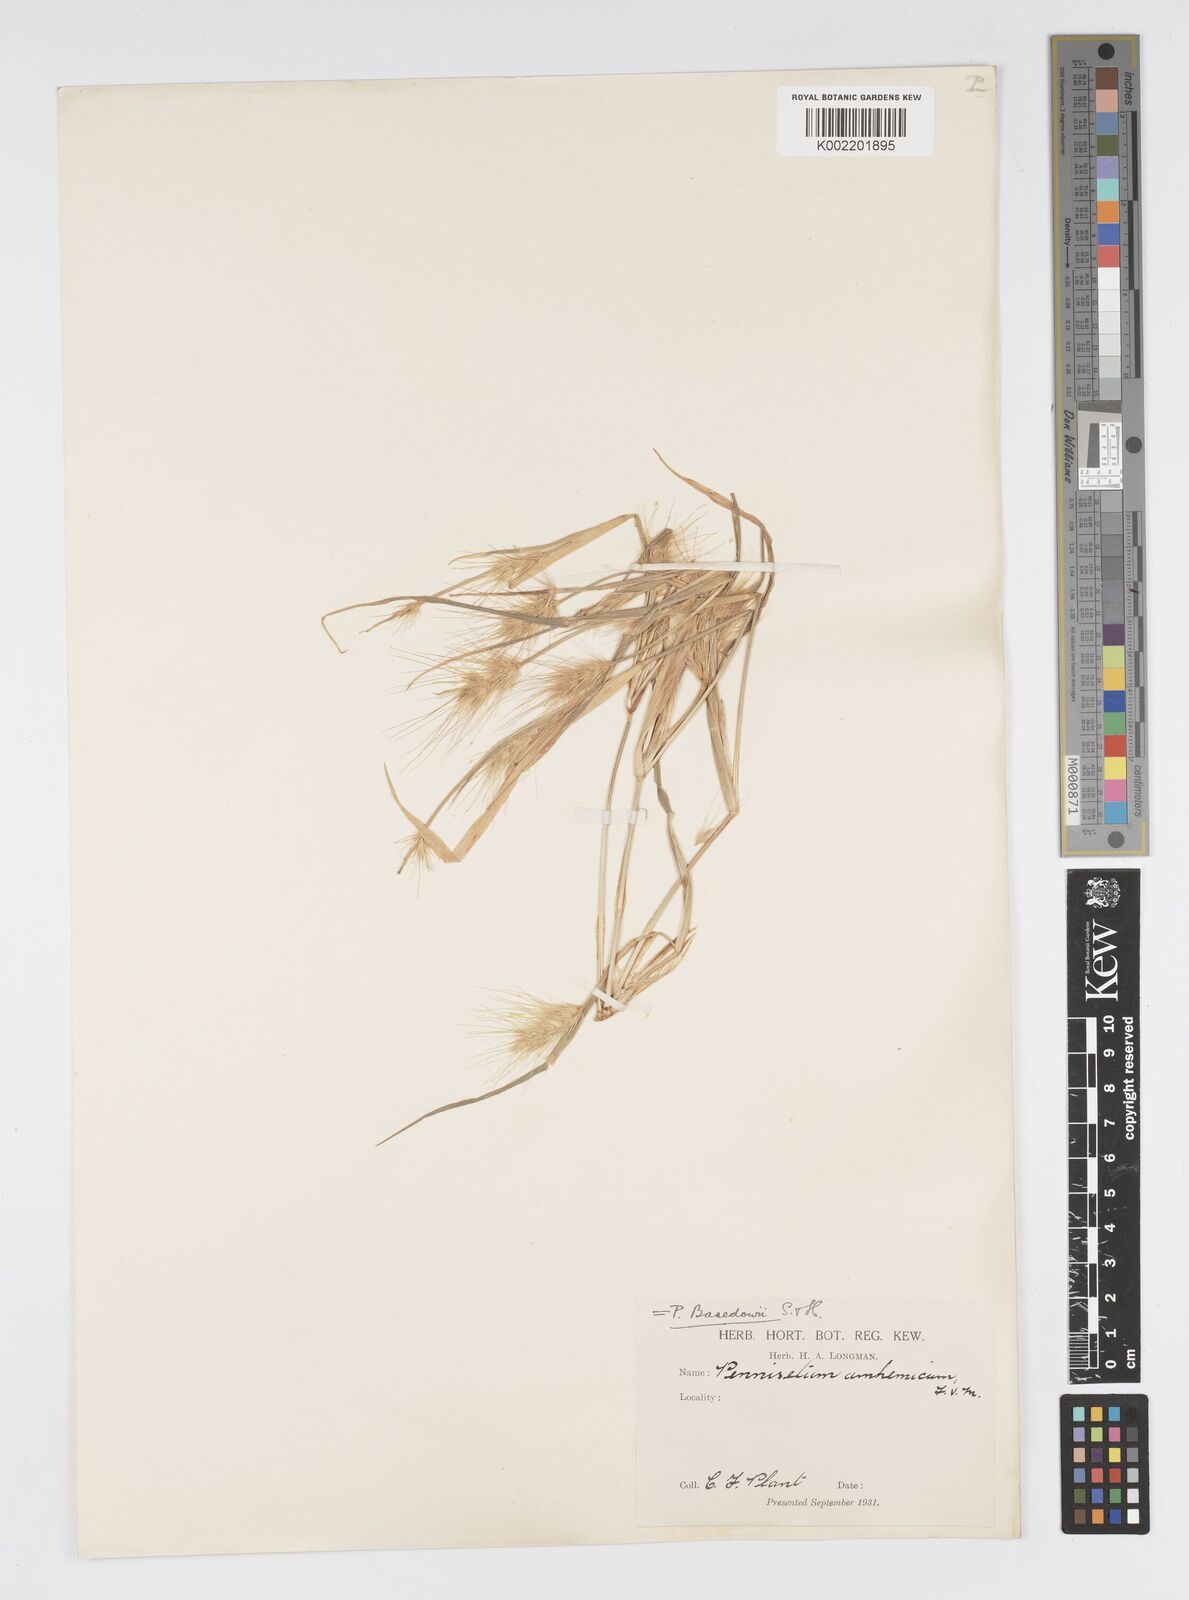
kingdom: Plantae
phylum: Tracheophyta
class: Liliopsida
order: Poales
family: Poaceae
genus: Cenchrus
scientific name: Cenchrus basedowii
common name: Asbestos grass
